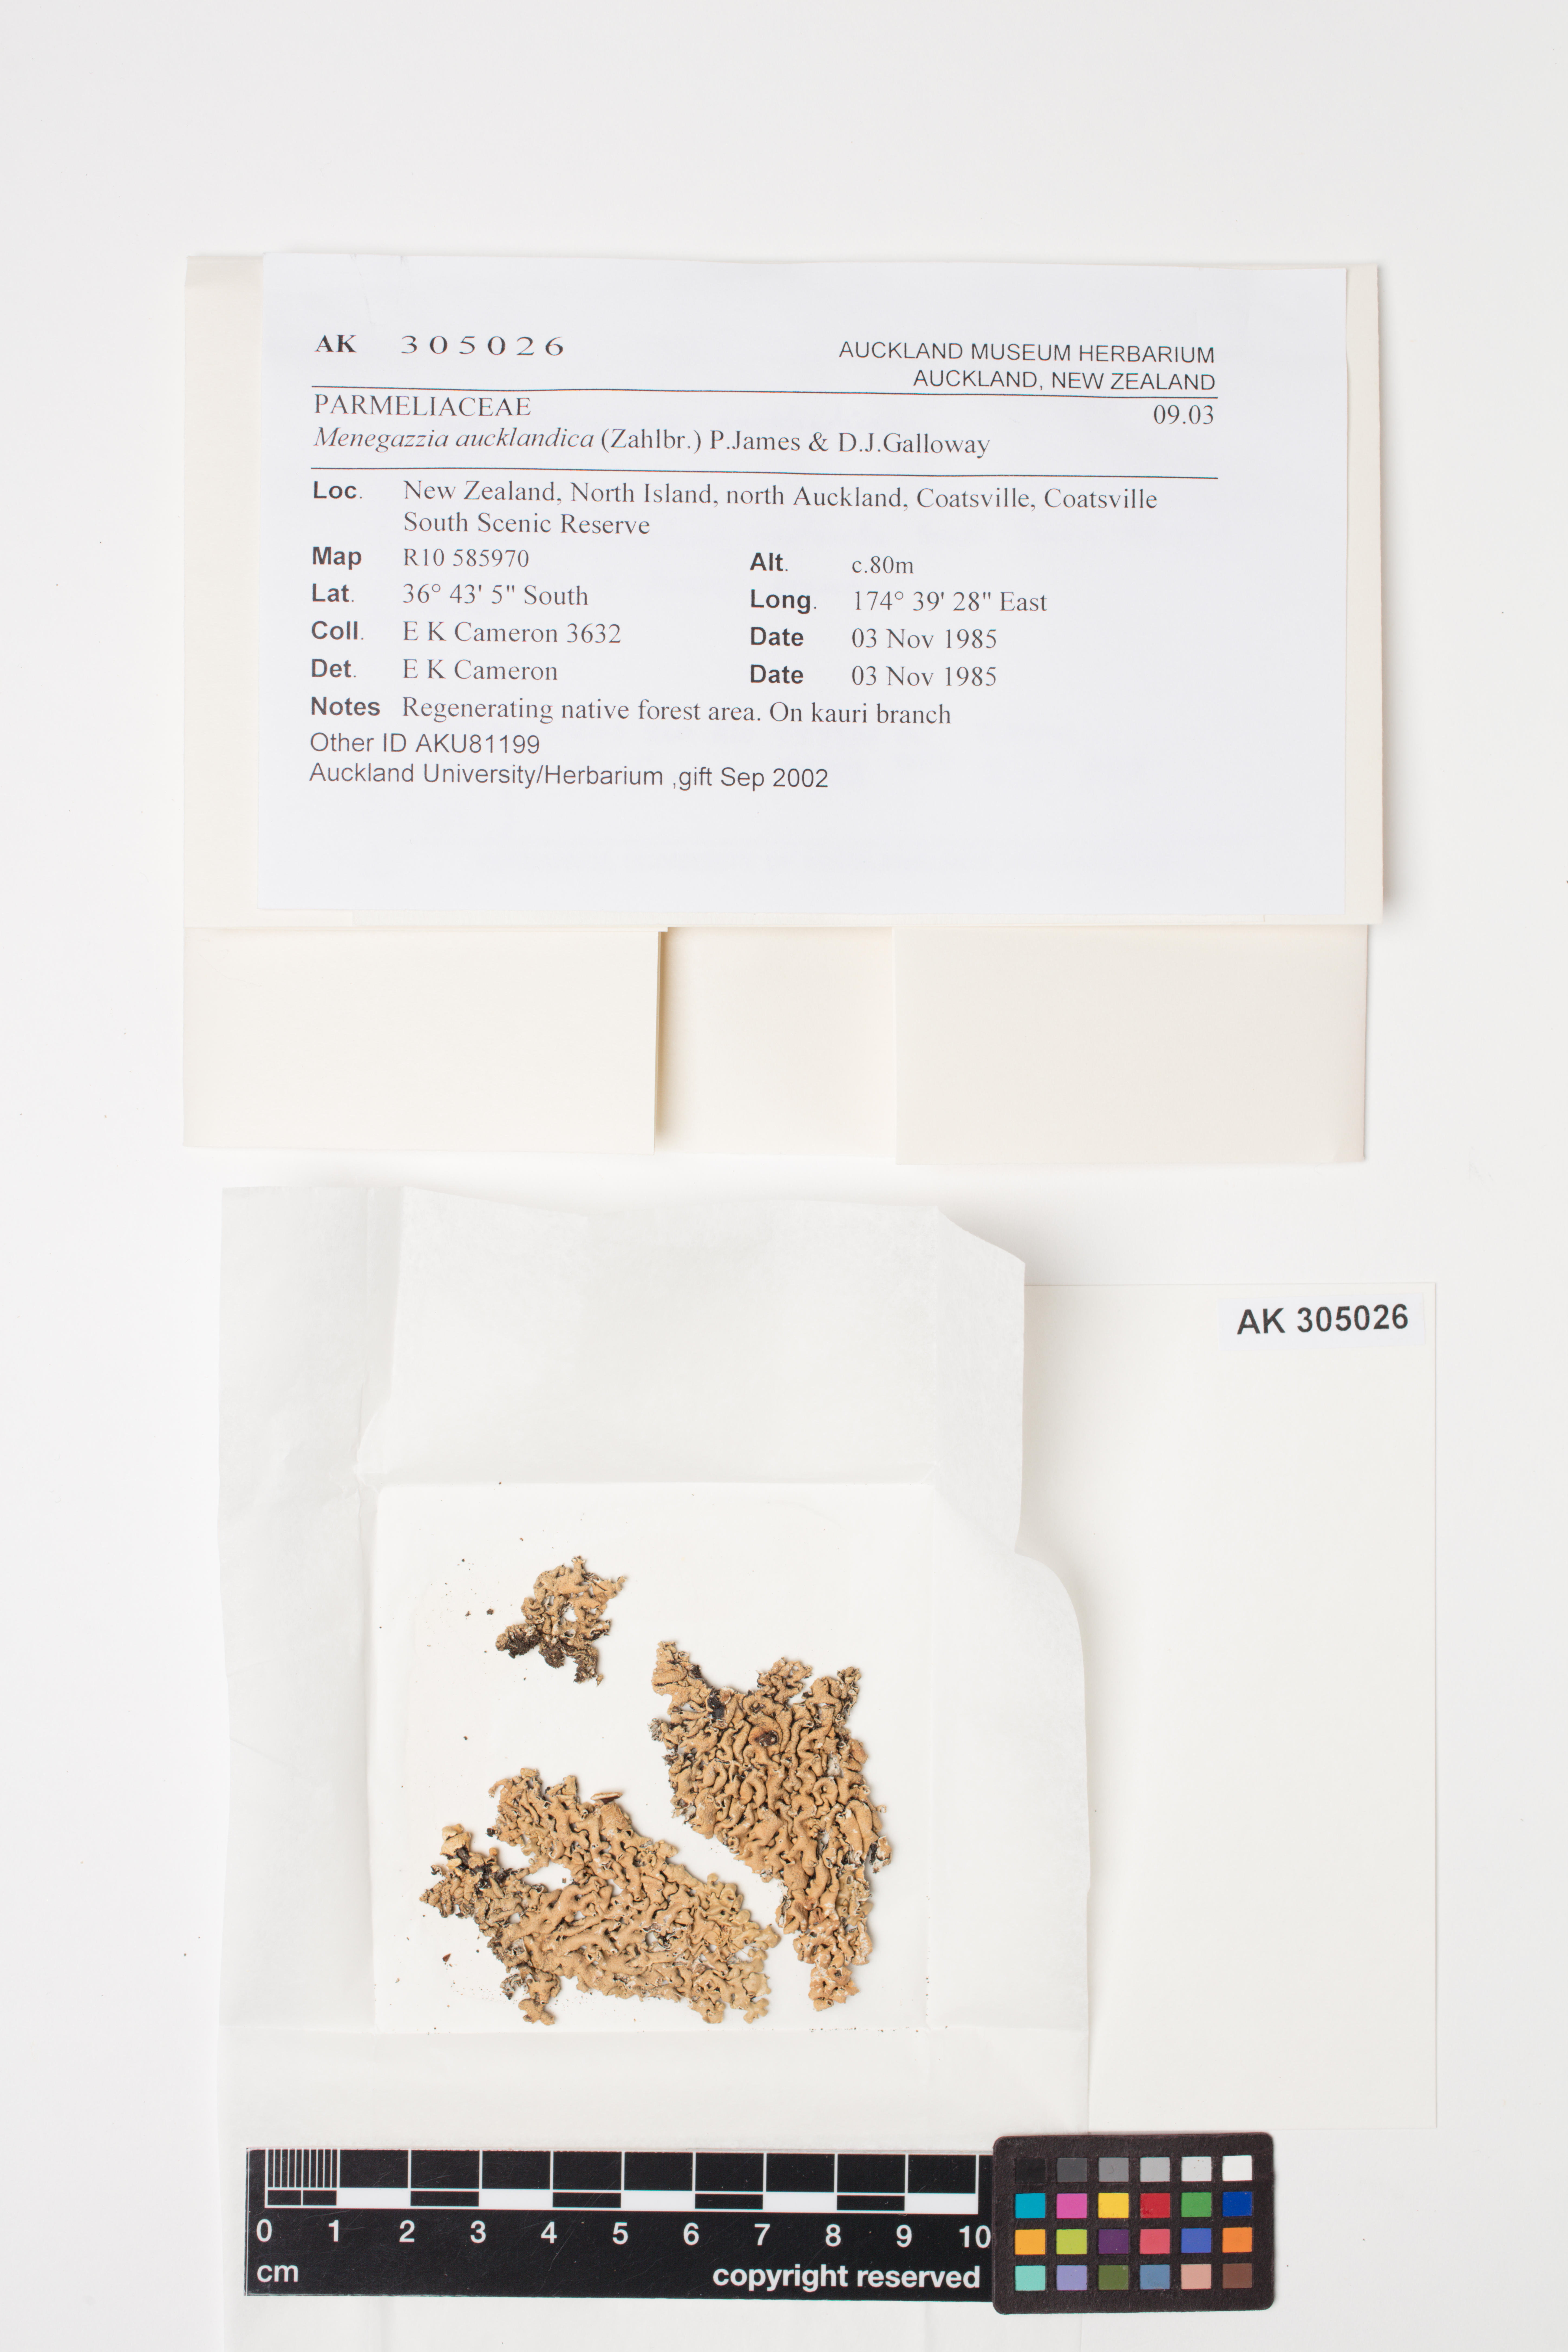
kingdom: Fungi
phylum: Ascomycota
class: Lecanoromycetes
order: Lecanorales
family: Parmeliaceae
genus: Menegazzia
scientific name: Menegazzia aucklandica
